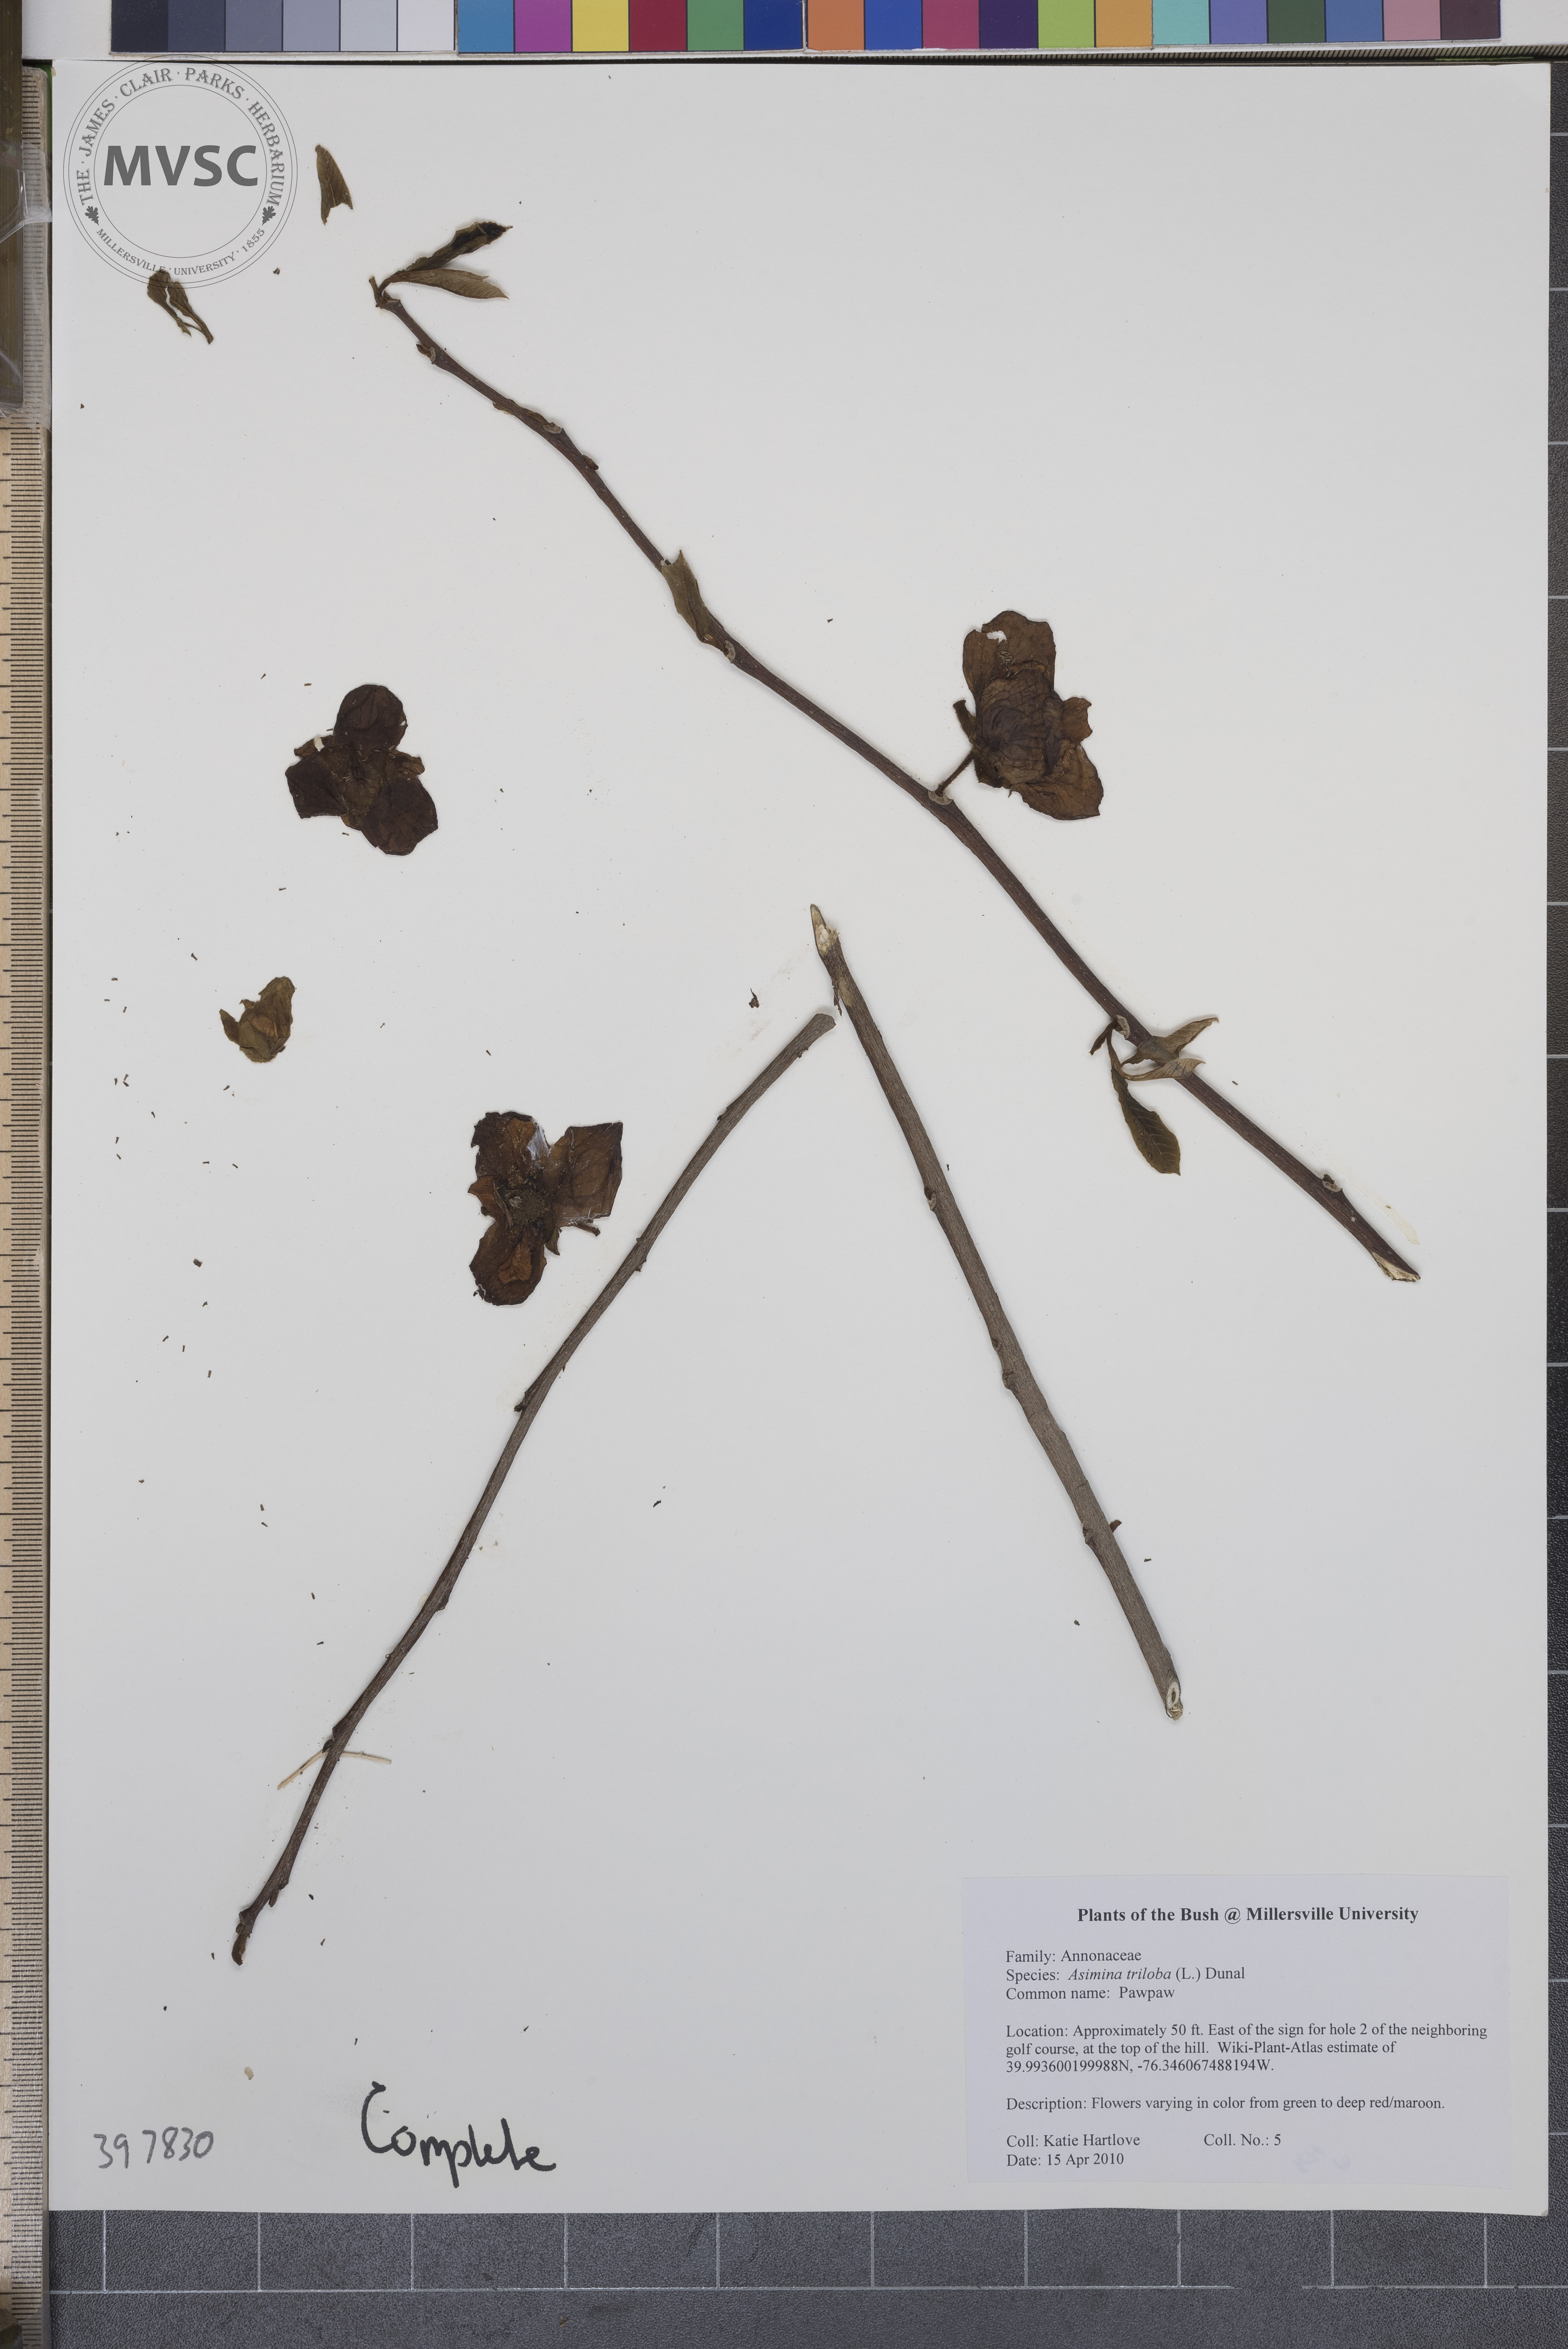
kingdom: Plantae
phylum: Tracheophyta
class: Magnoliopsida
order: Magnoliales
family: Annonaceae
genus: Asimina
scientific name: Asimina triloba
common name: Pawpaw
